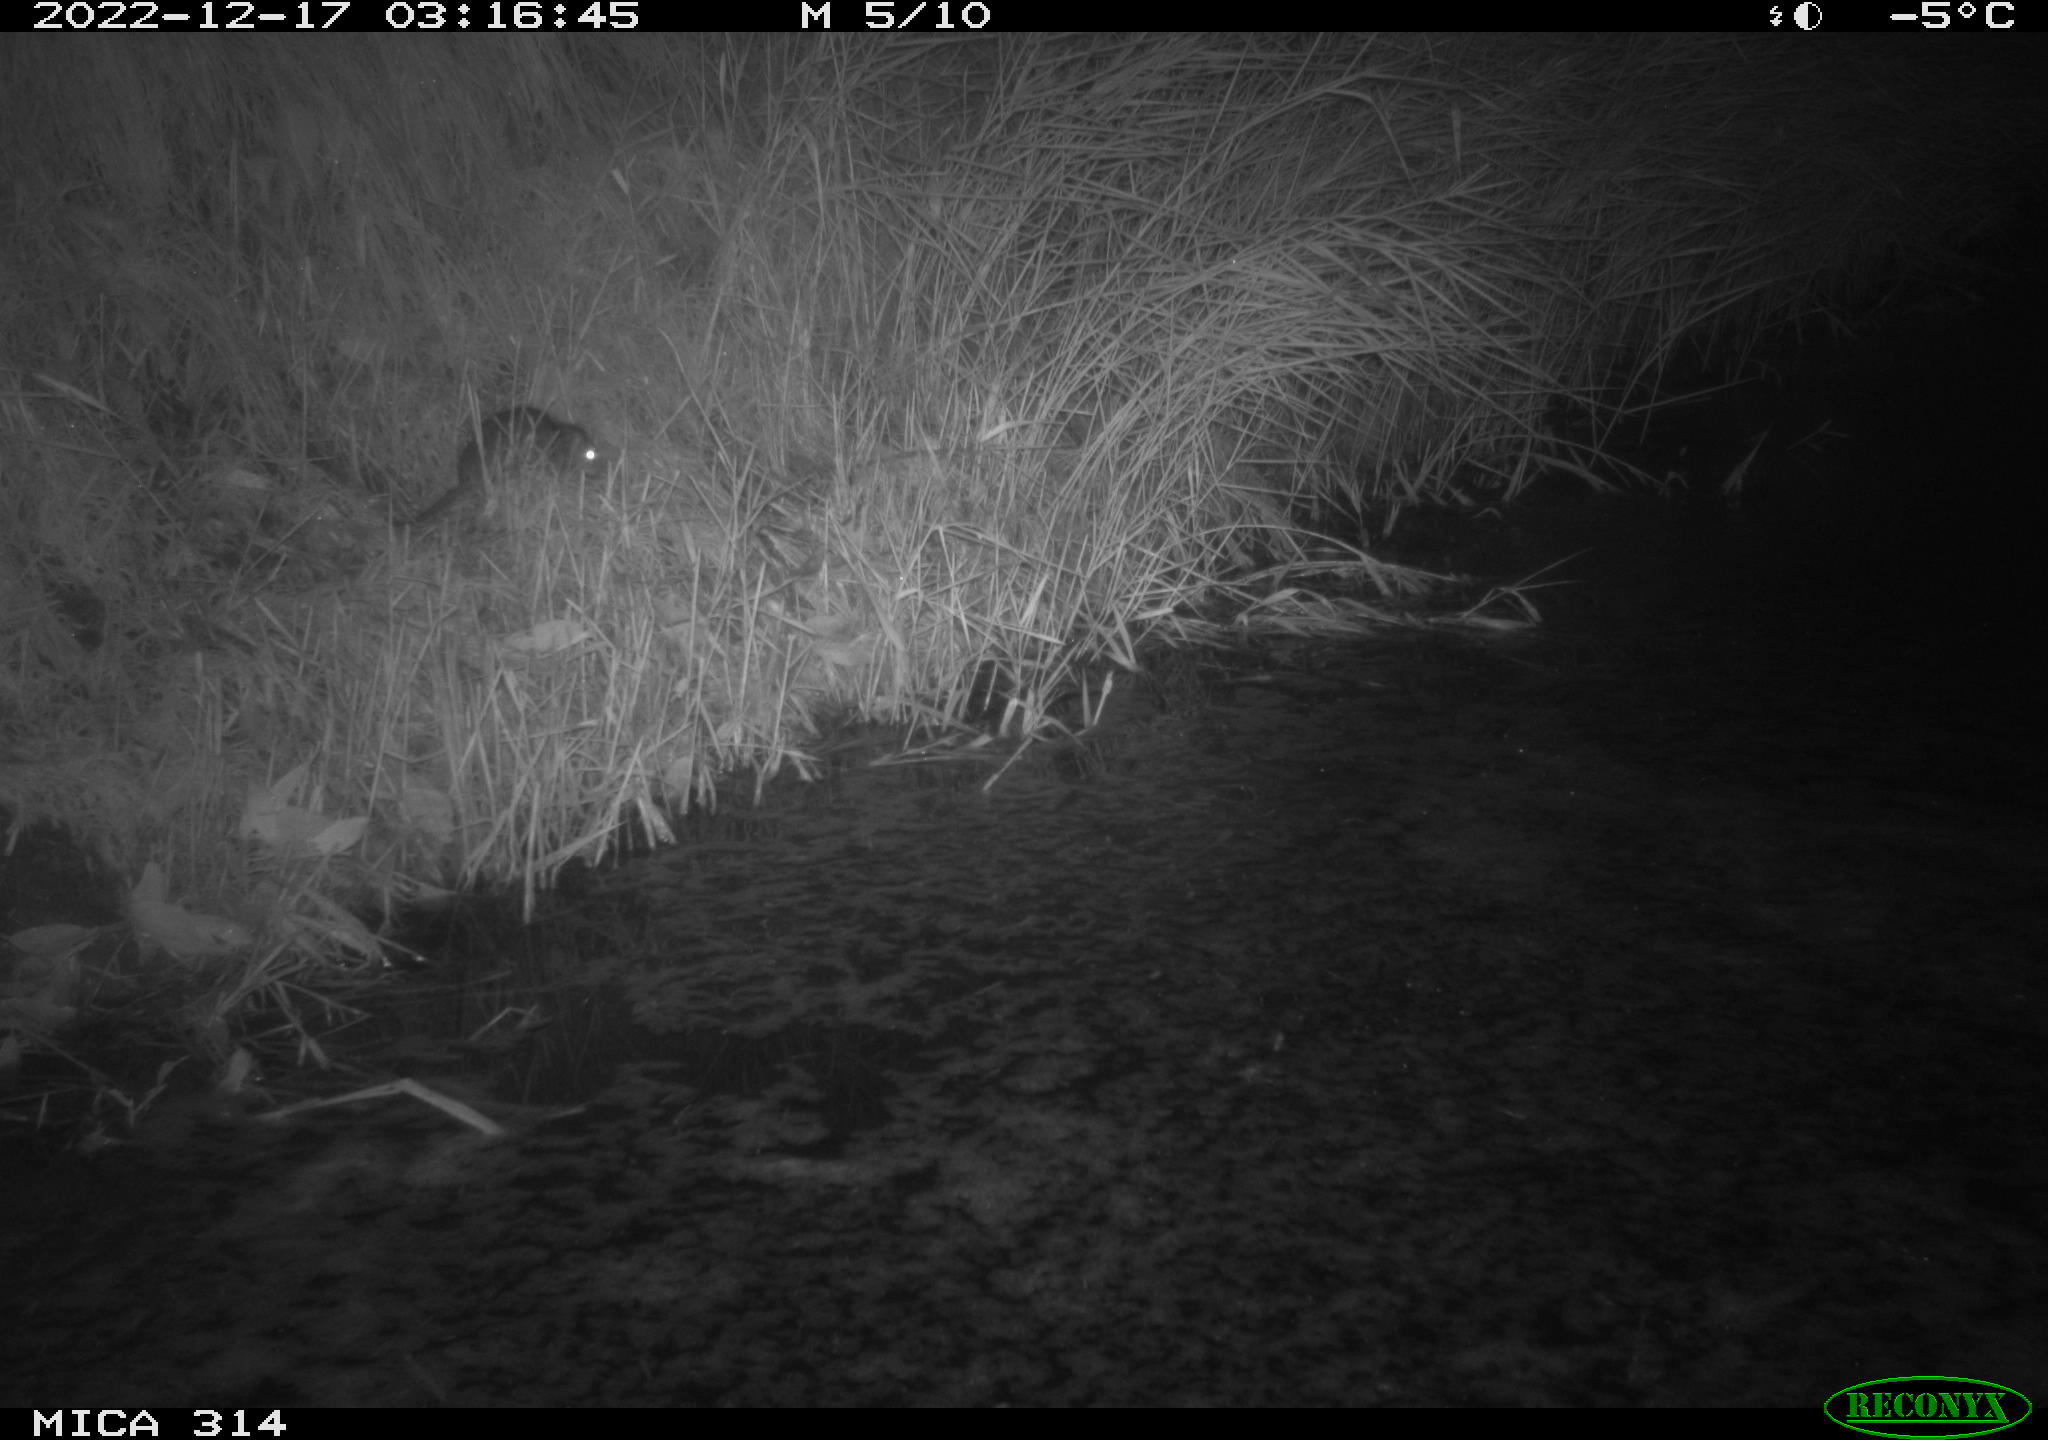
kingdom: Animalia
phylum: Chordata
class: Mammalia
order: Rodentia
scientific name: Rodentia
